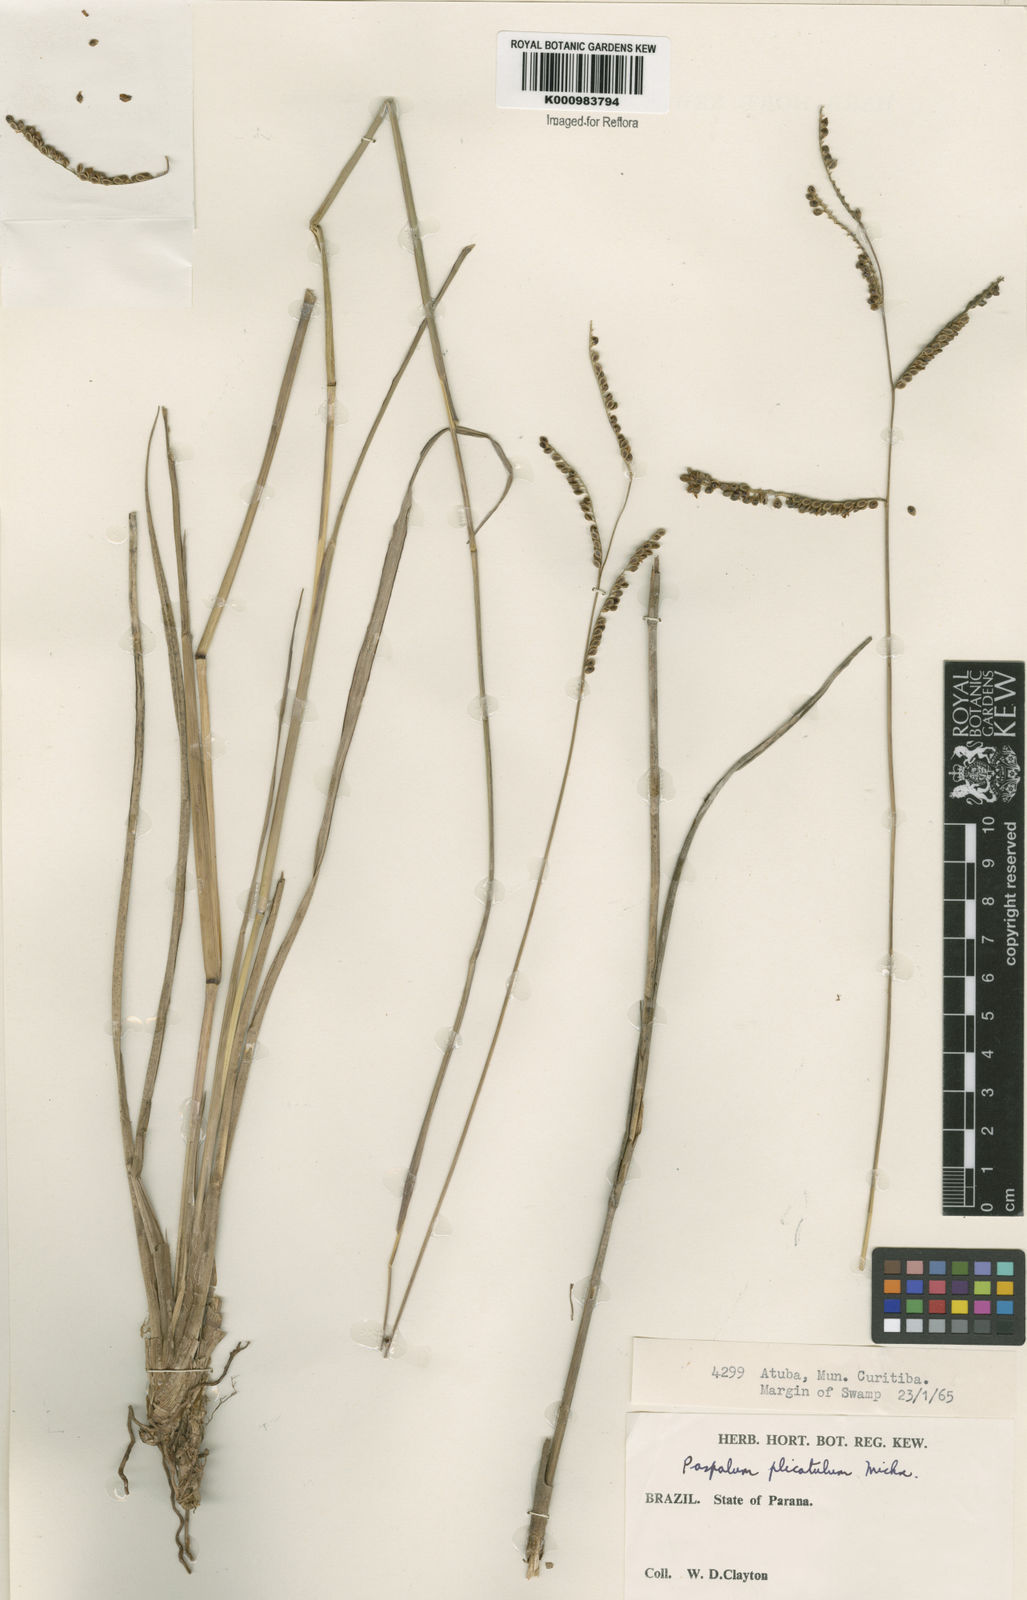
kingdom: Plantae
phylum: Tracheophyta
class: Liliopsida
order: Poales
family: Poaceae
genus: Paspalum
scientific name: Paspalum plicatulum
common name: Top paspalum
